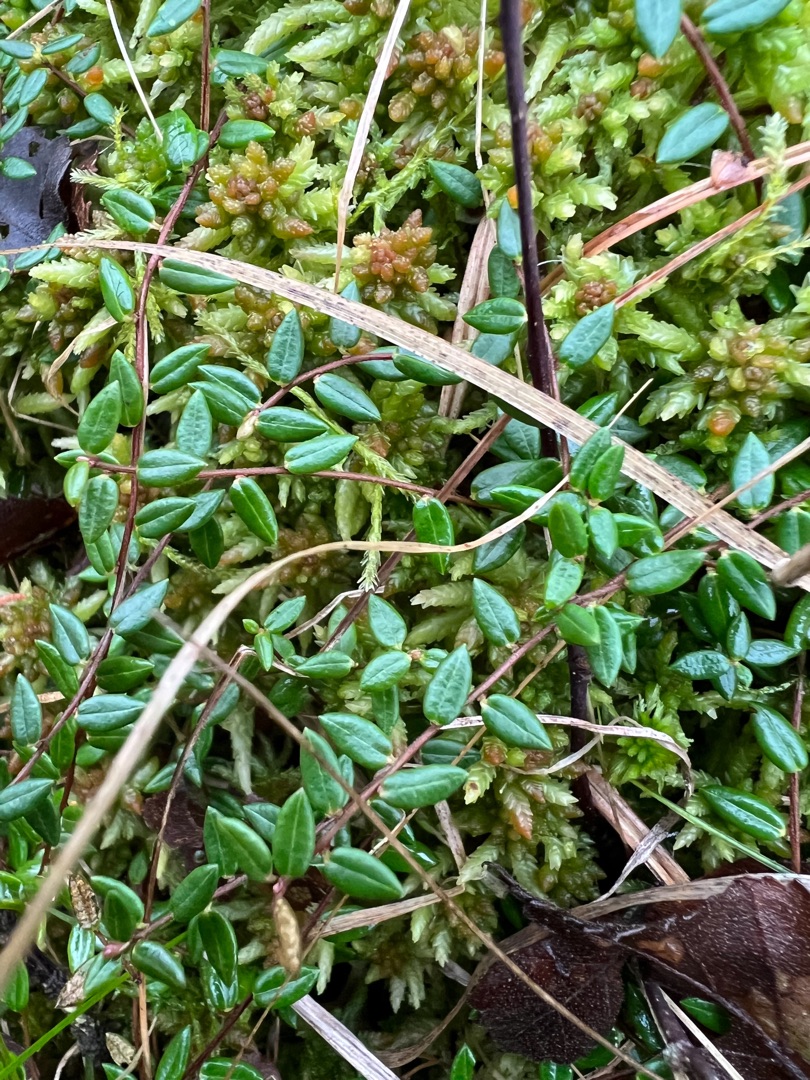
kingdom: Plantae
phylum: Tracheophyta
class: Magnoliopsida
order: Ericales
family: Ericaceae
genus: Vaccinium
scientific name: Vaccinium oxycoccos
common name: Tranebær
